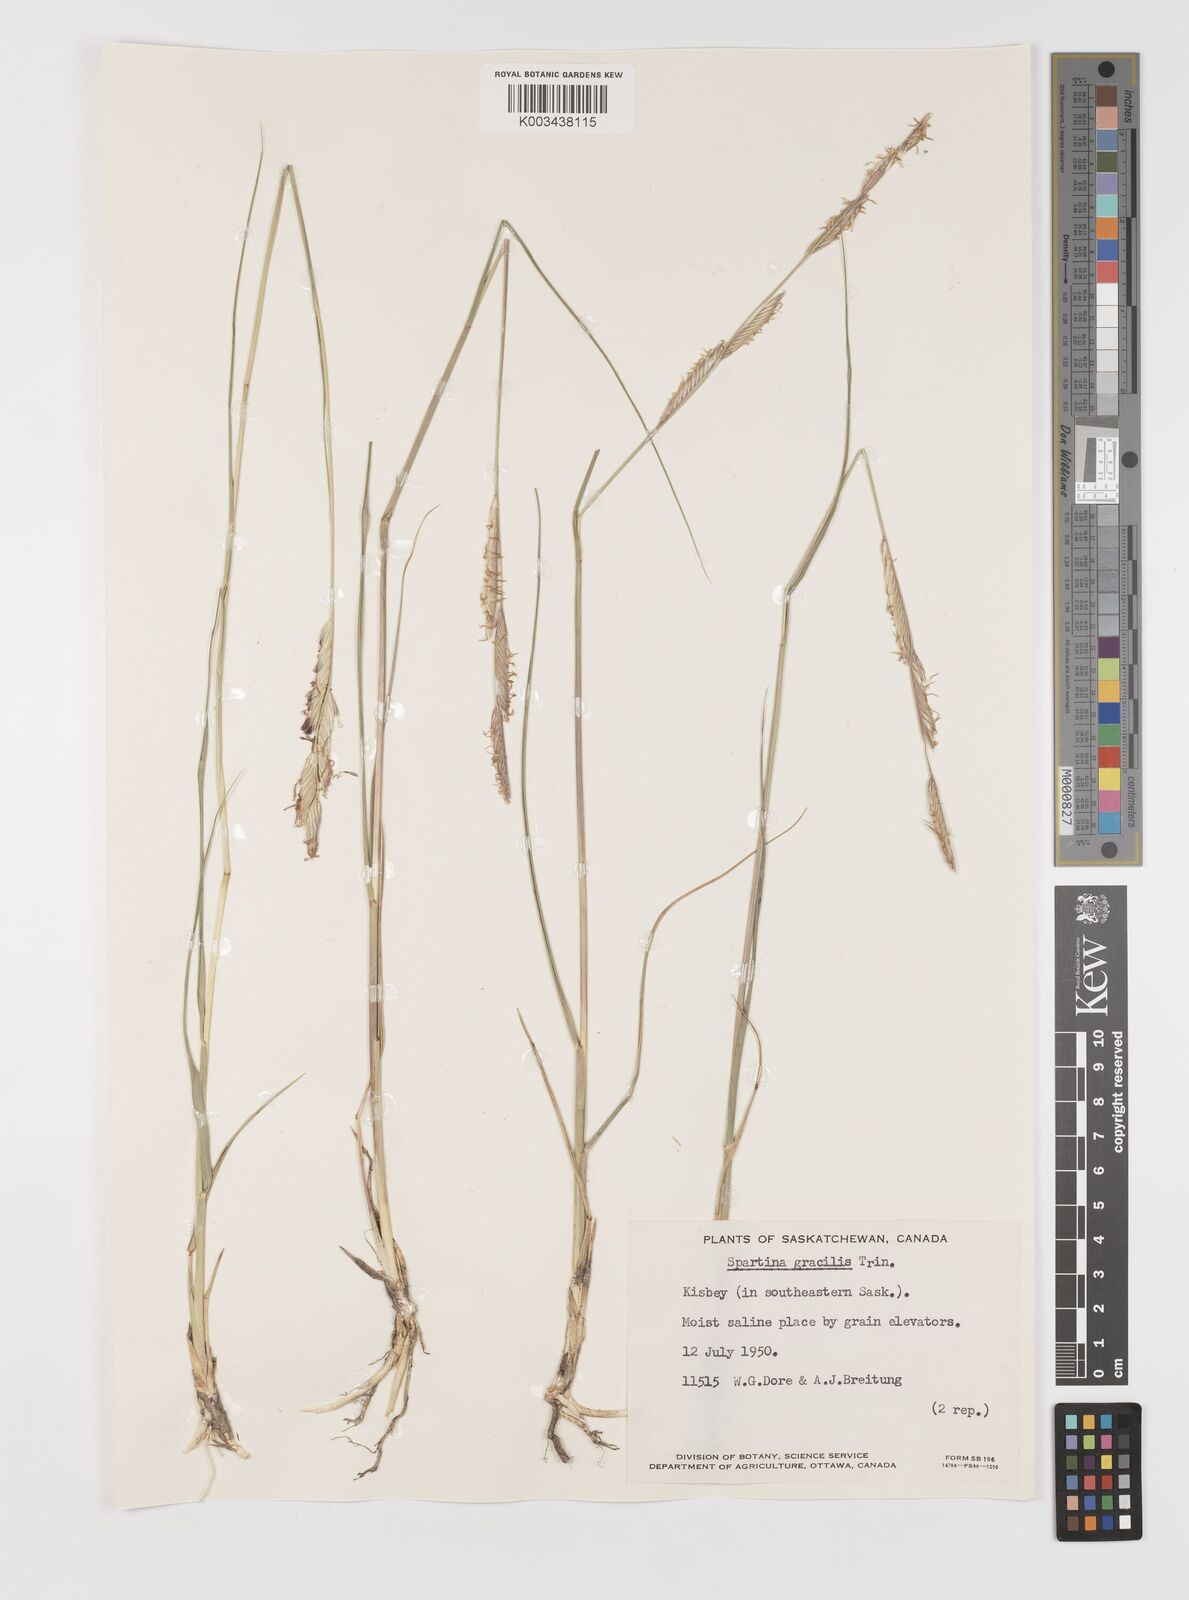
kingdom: Plantae
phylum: Tracheophyta
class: Liliopsida
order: Poales
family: Poaceae
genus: Sporobolus
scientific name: Sporobolus hookerianus
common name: Alkali cordgrass
